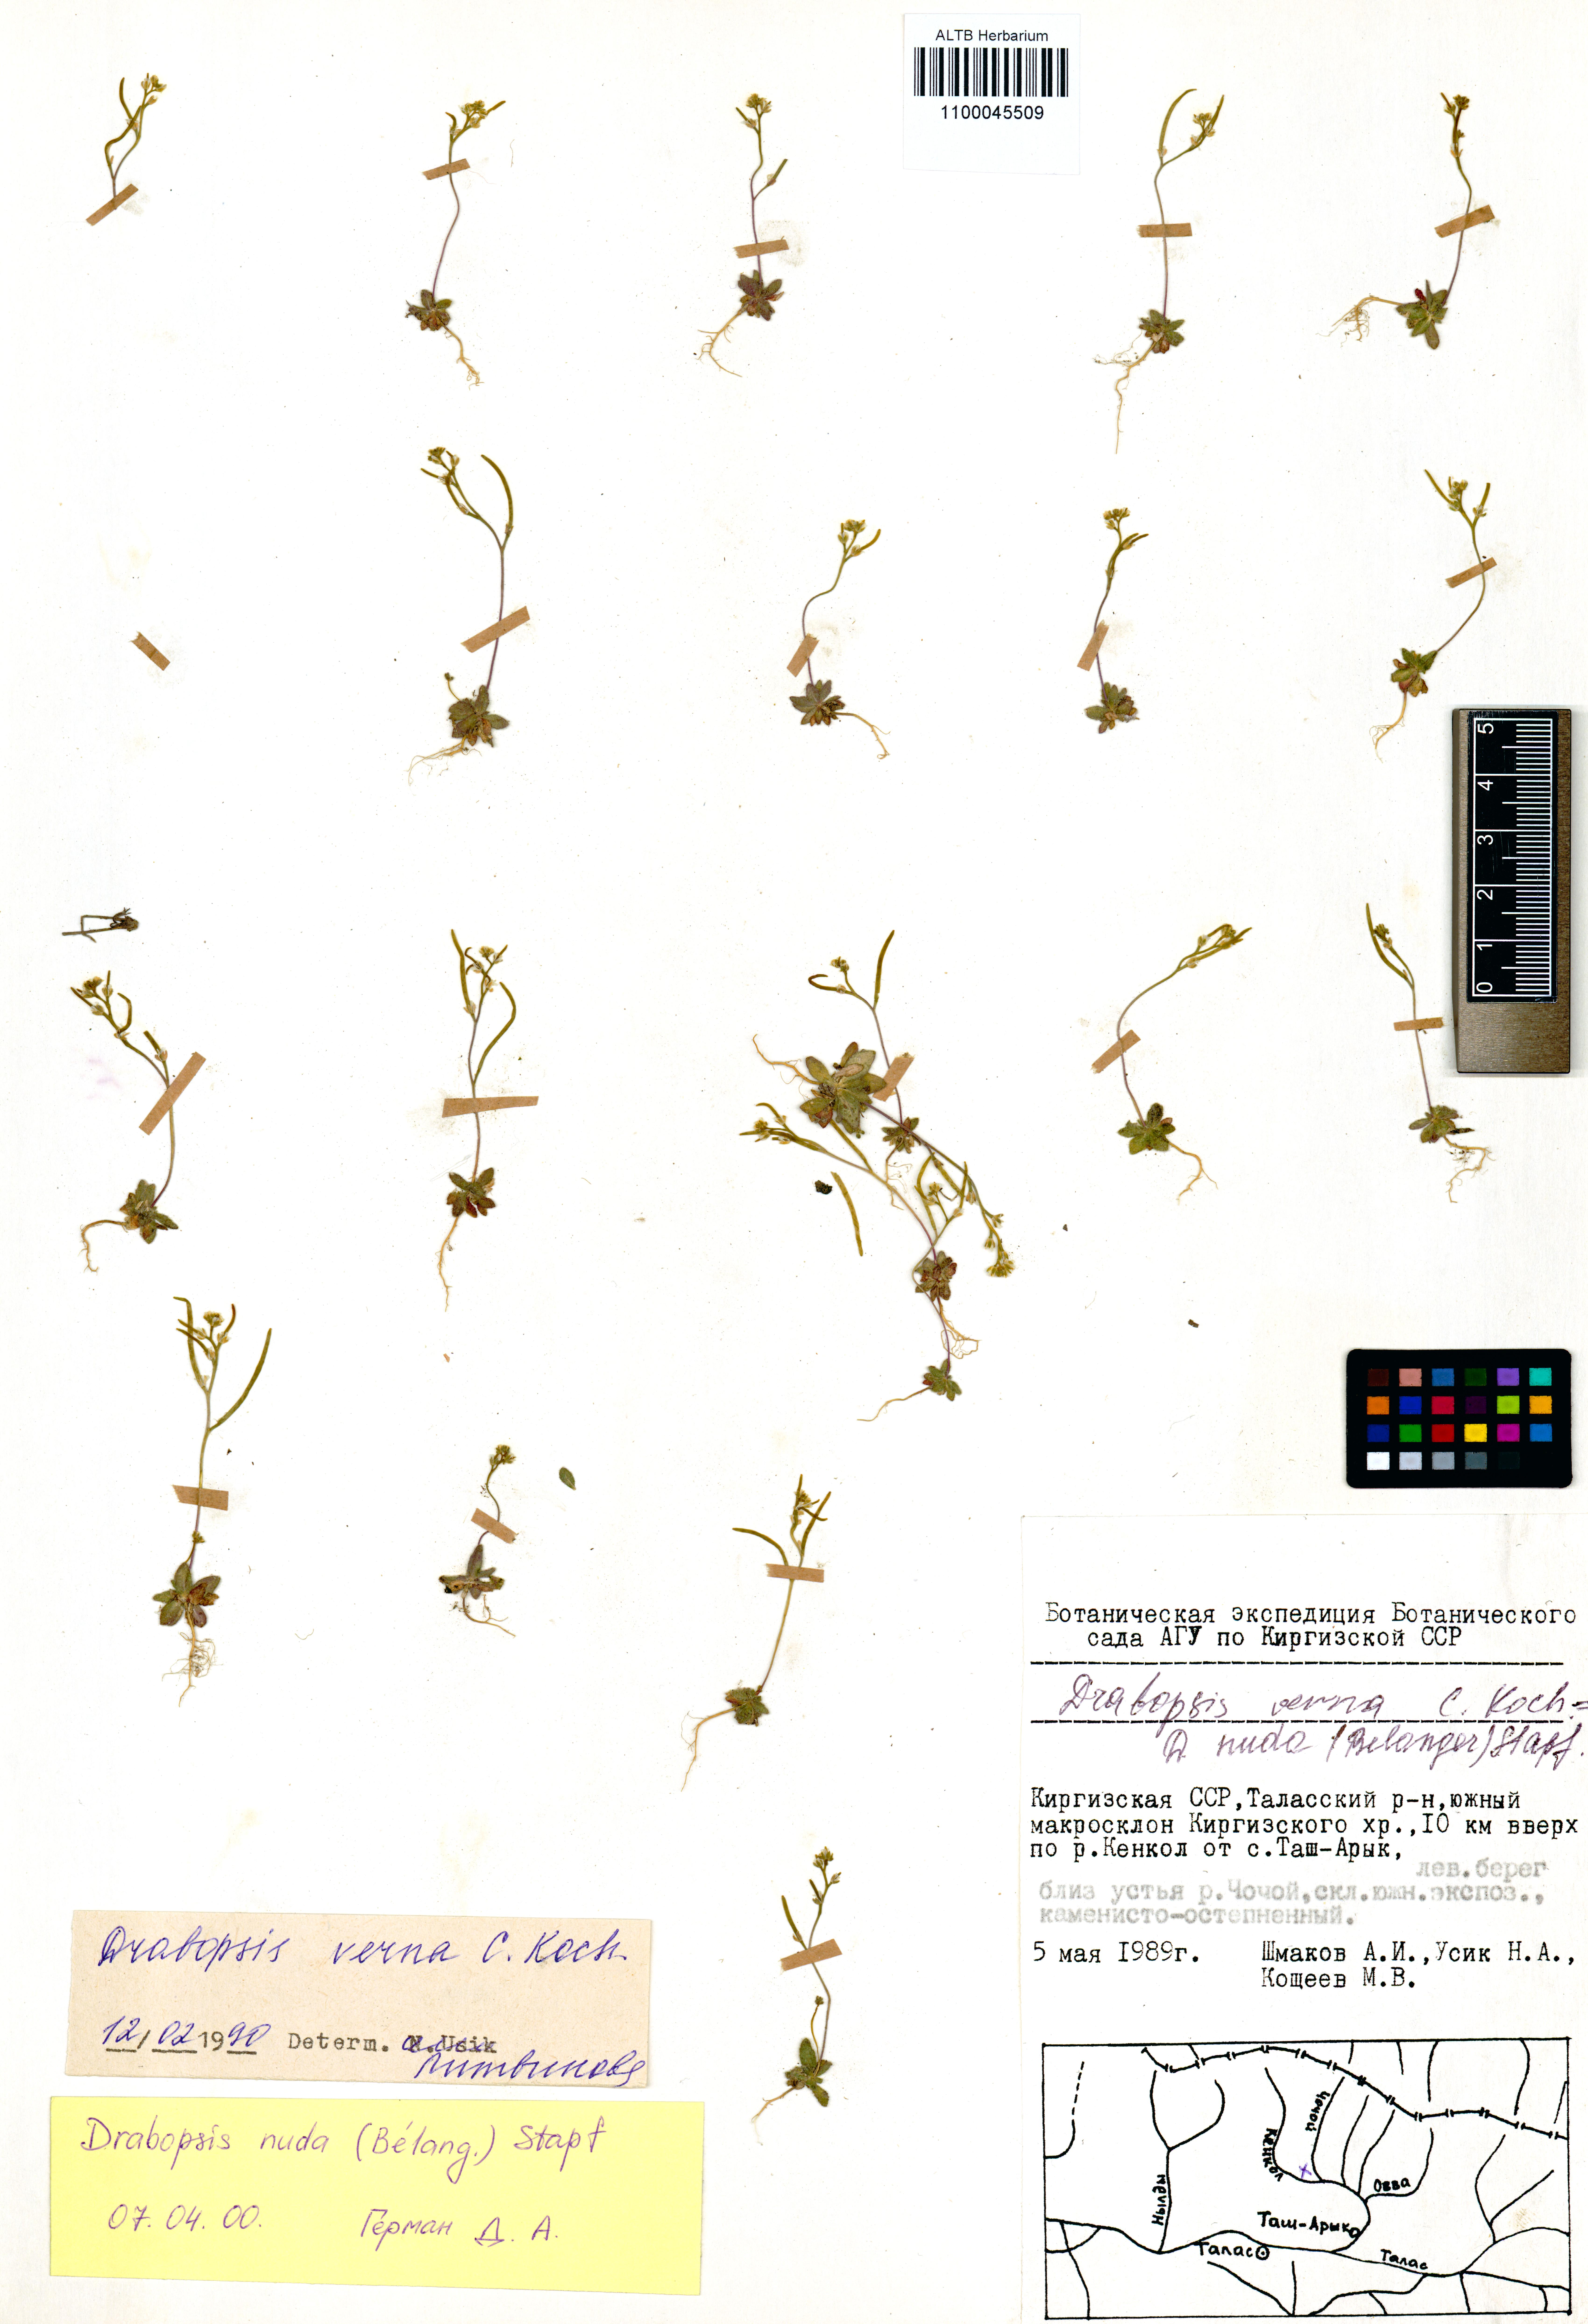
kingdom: Plantae
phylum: Tracheophyta
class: Magnoliopsida
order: Brassicales
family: Brassicaceae
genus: Draba
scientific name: Draba nuda
